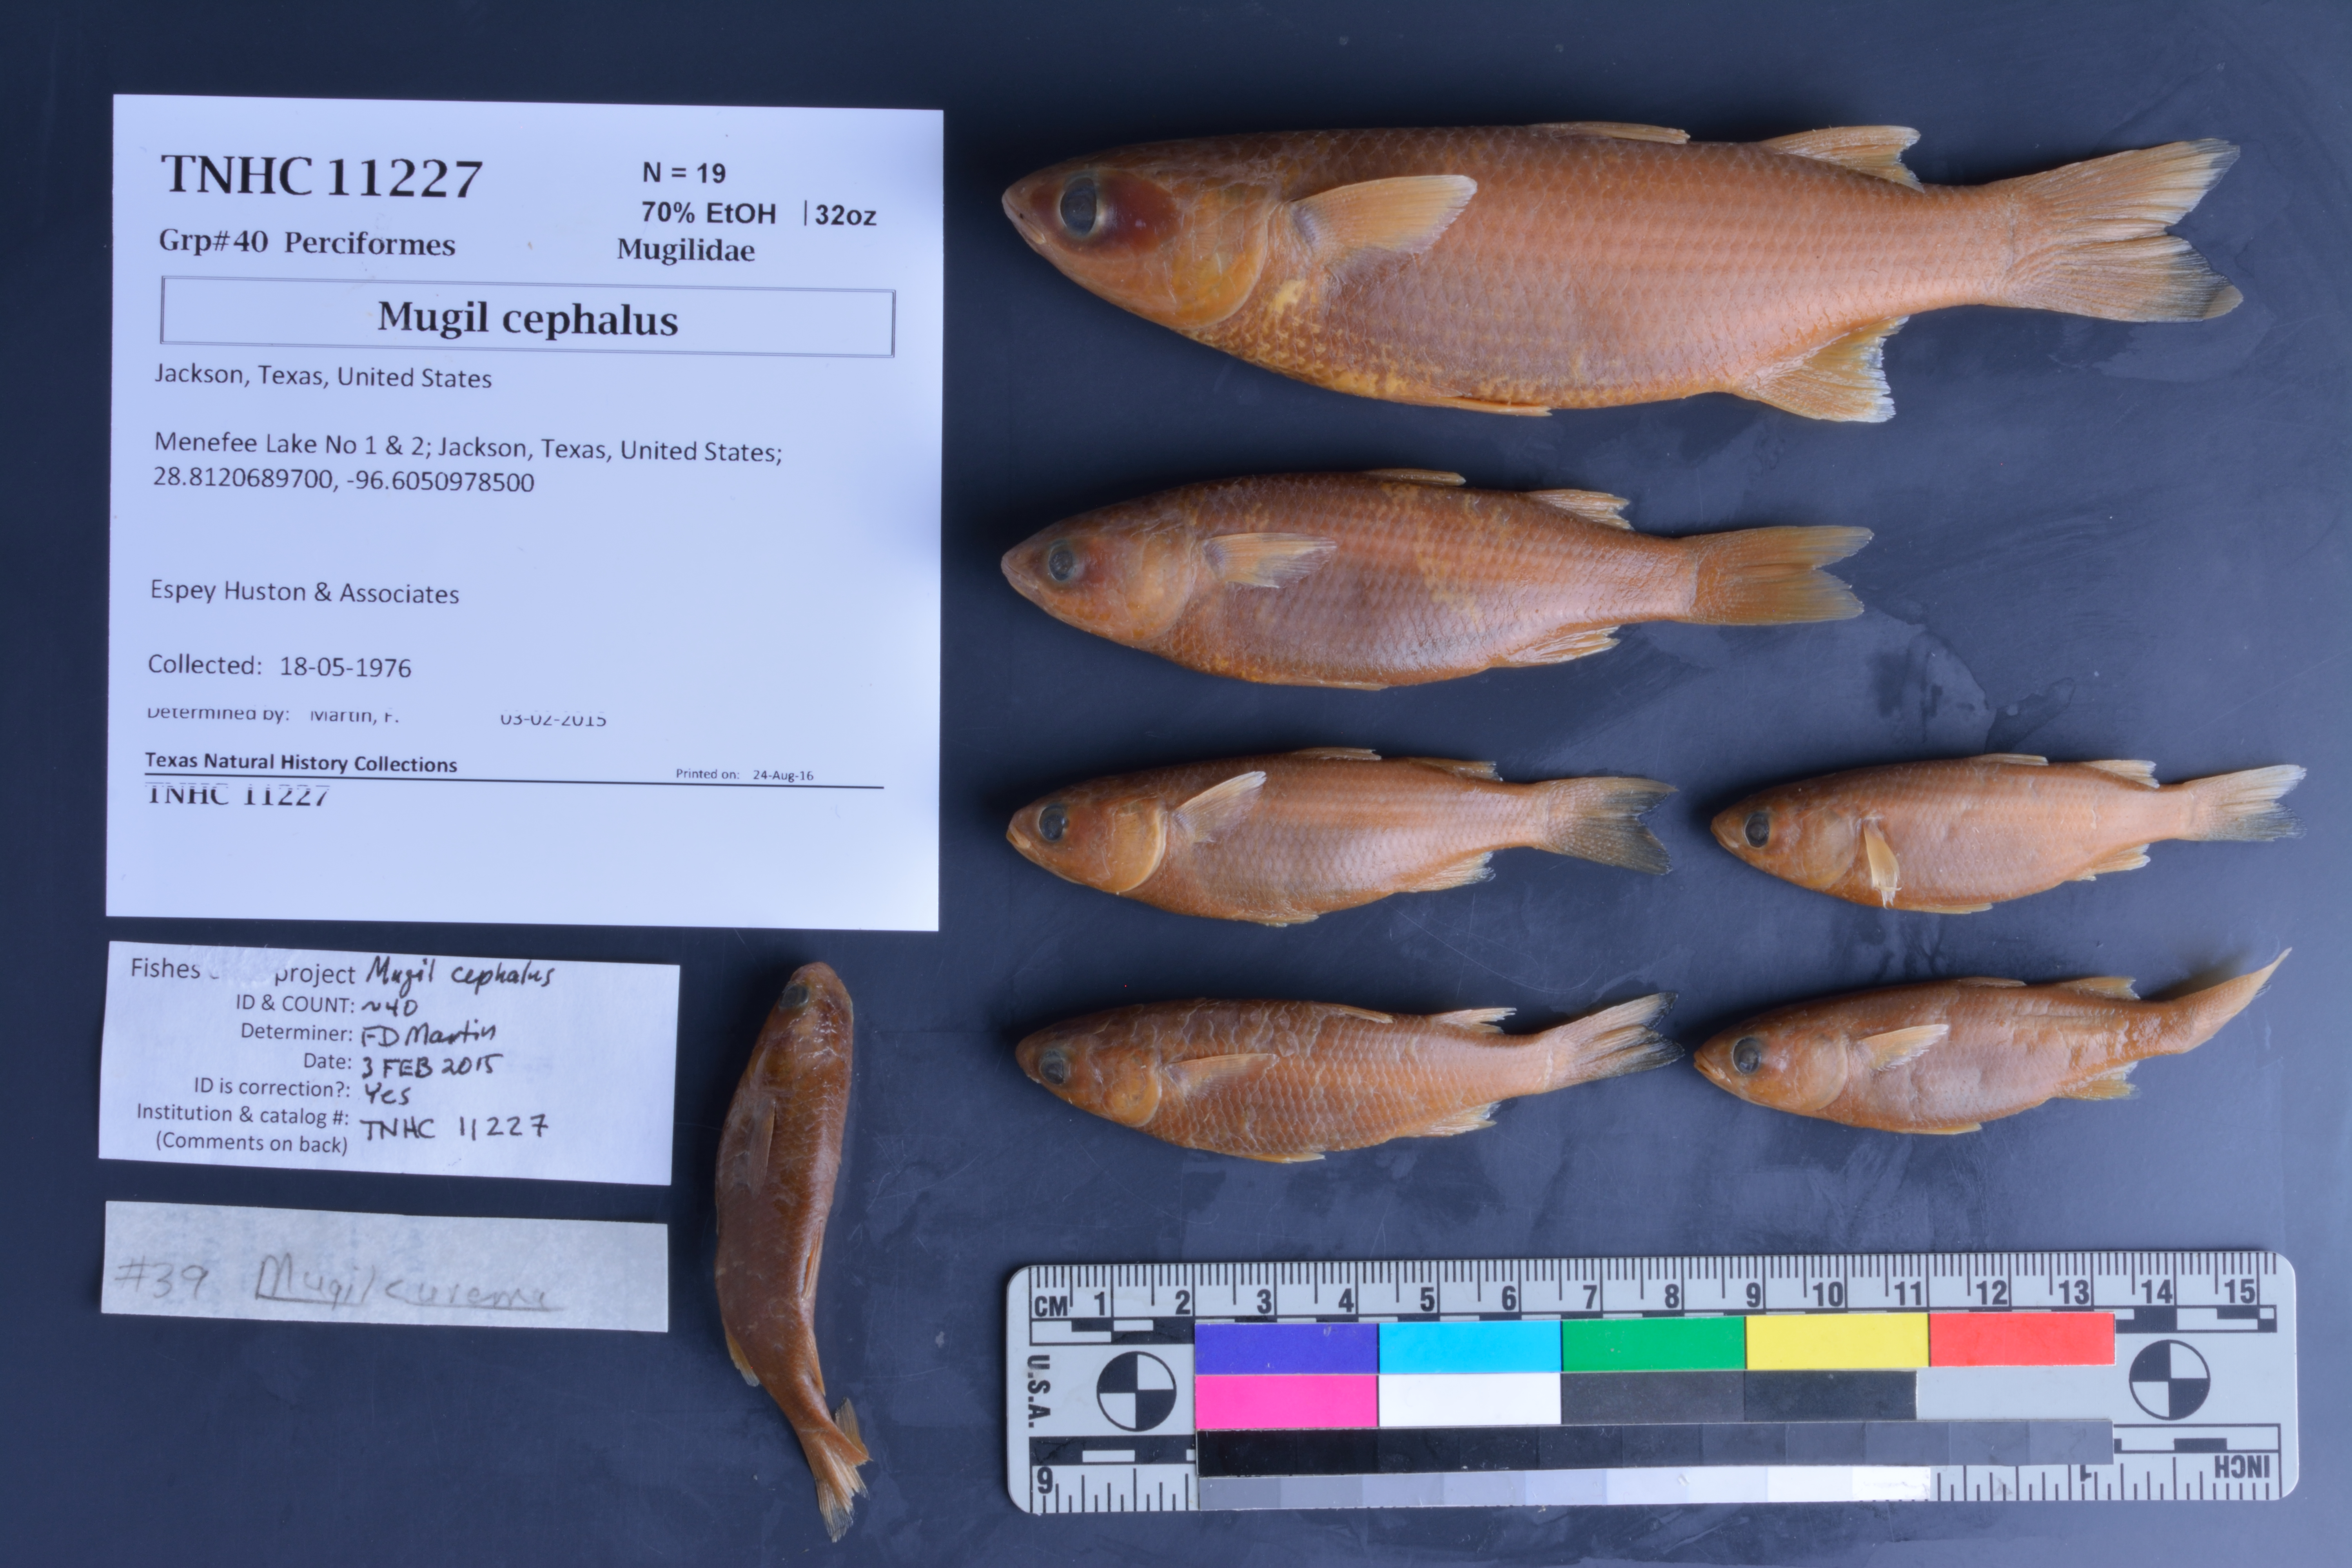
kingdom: Animalia
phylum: Chordata
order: Mugiliformes
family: Mugilidae
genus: Mugil
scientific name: Mugil cephalus
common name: Grey mullet
